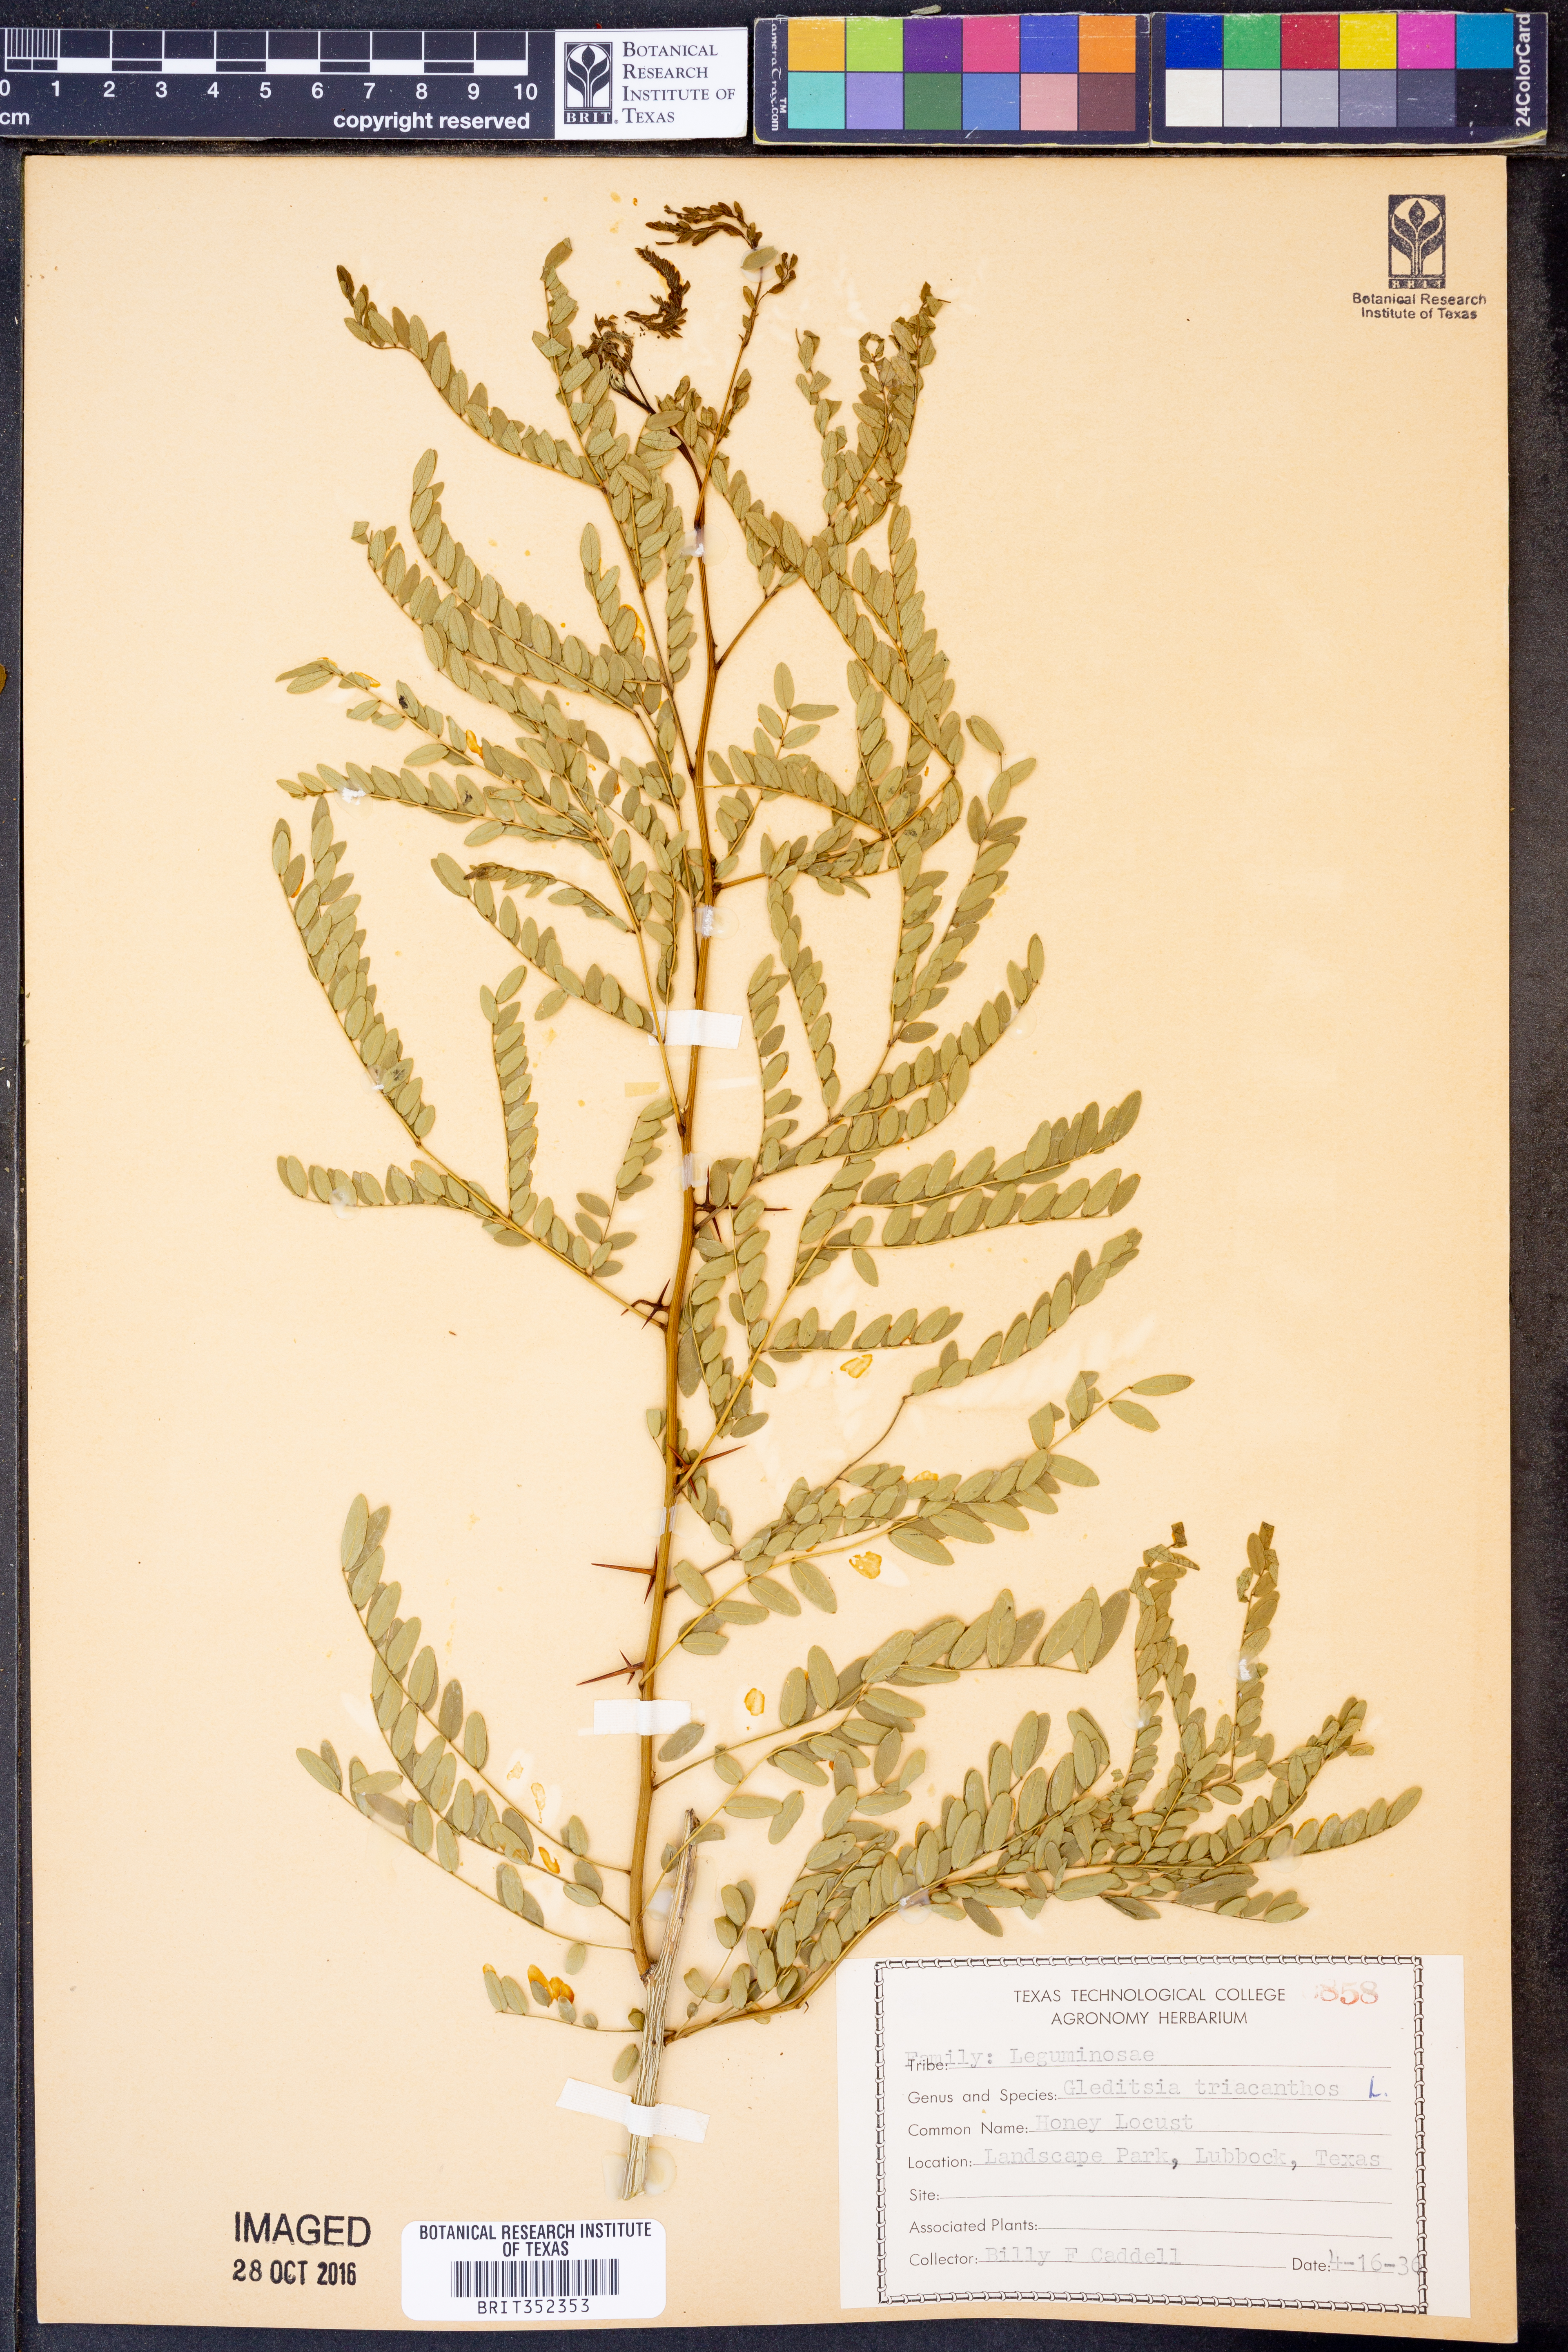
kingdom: Plantae
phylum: Tracheophyta
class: Magnoliopsida
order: Fabales
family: Fabaceae
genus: Gleditsia
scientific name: Gleditsia triacanthos
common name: Common honeylocust
